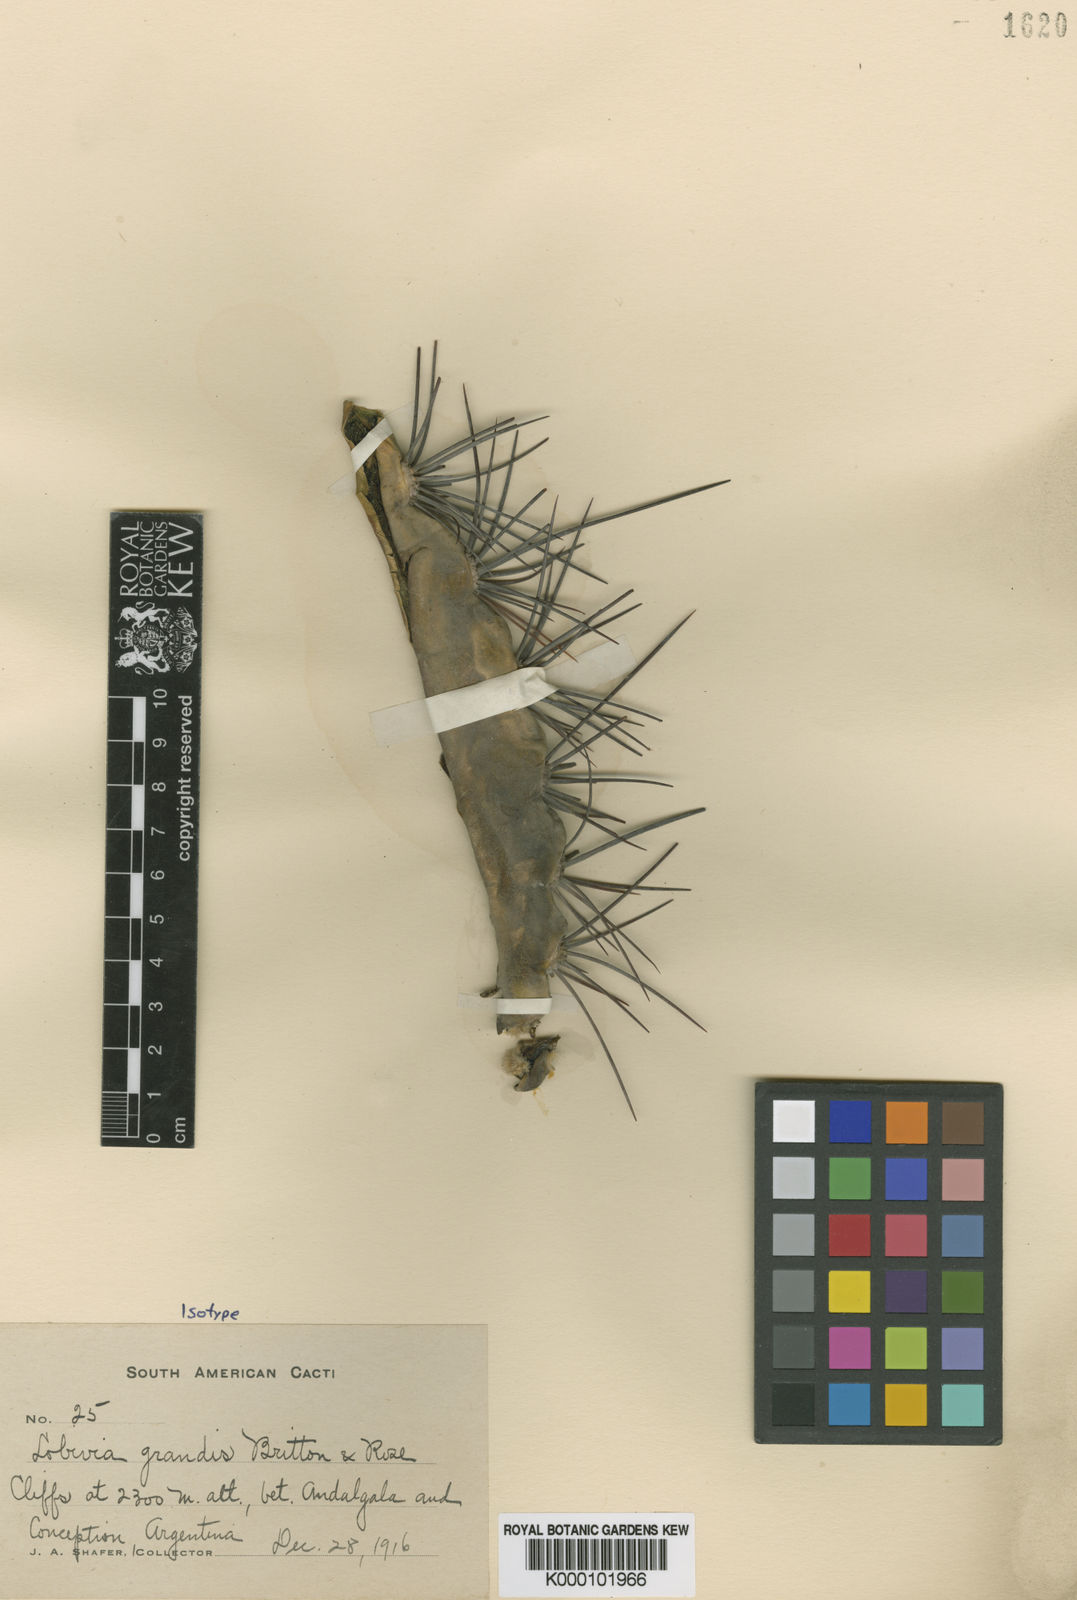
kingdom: Plantae
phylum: Tracheophyta
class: Magnoliopsida
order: Caryophyllales
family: Cactaceae
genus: Soehrensia
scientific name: Soehrensia bruchii
